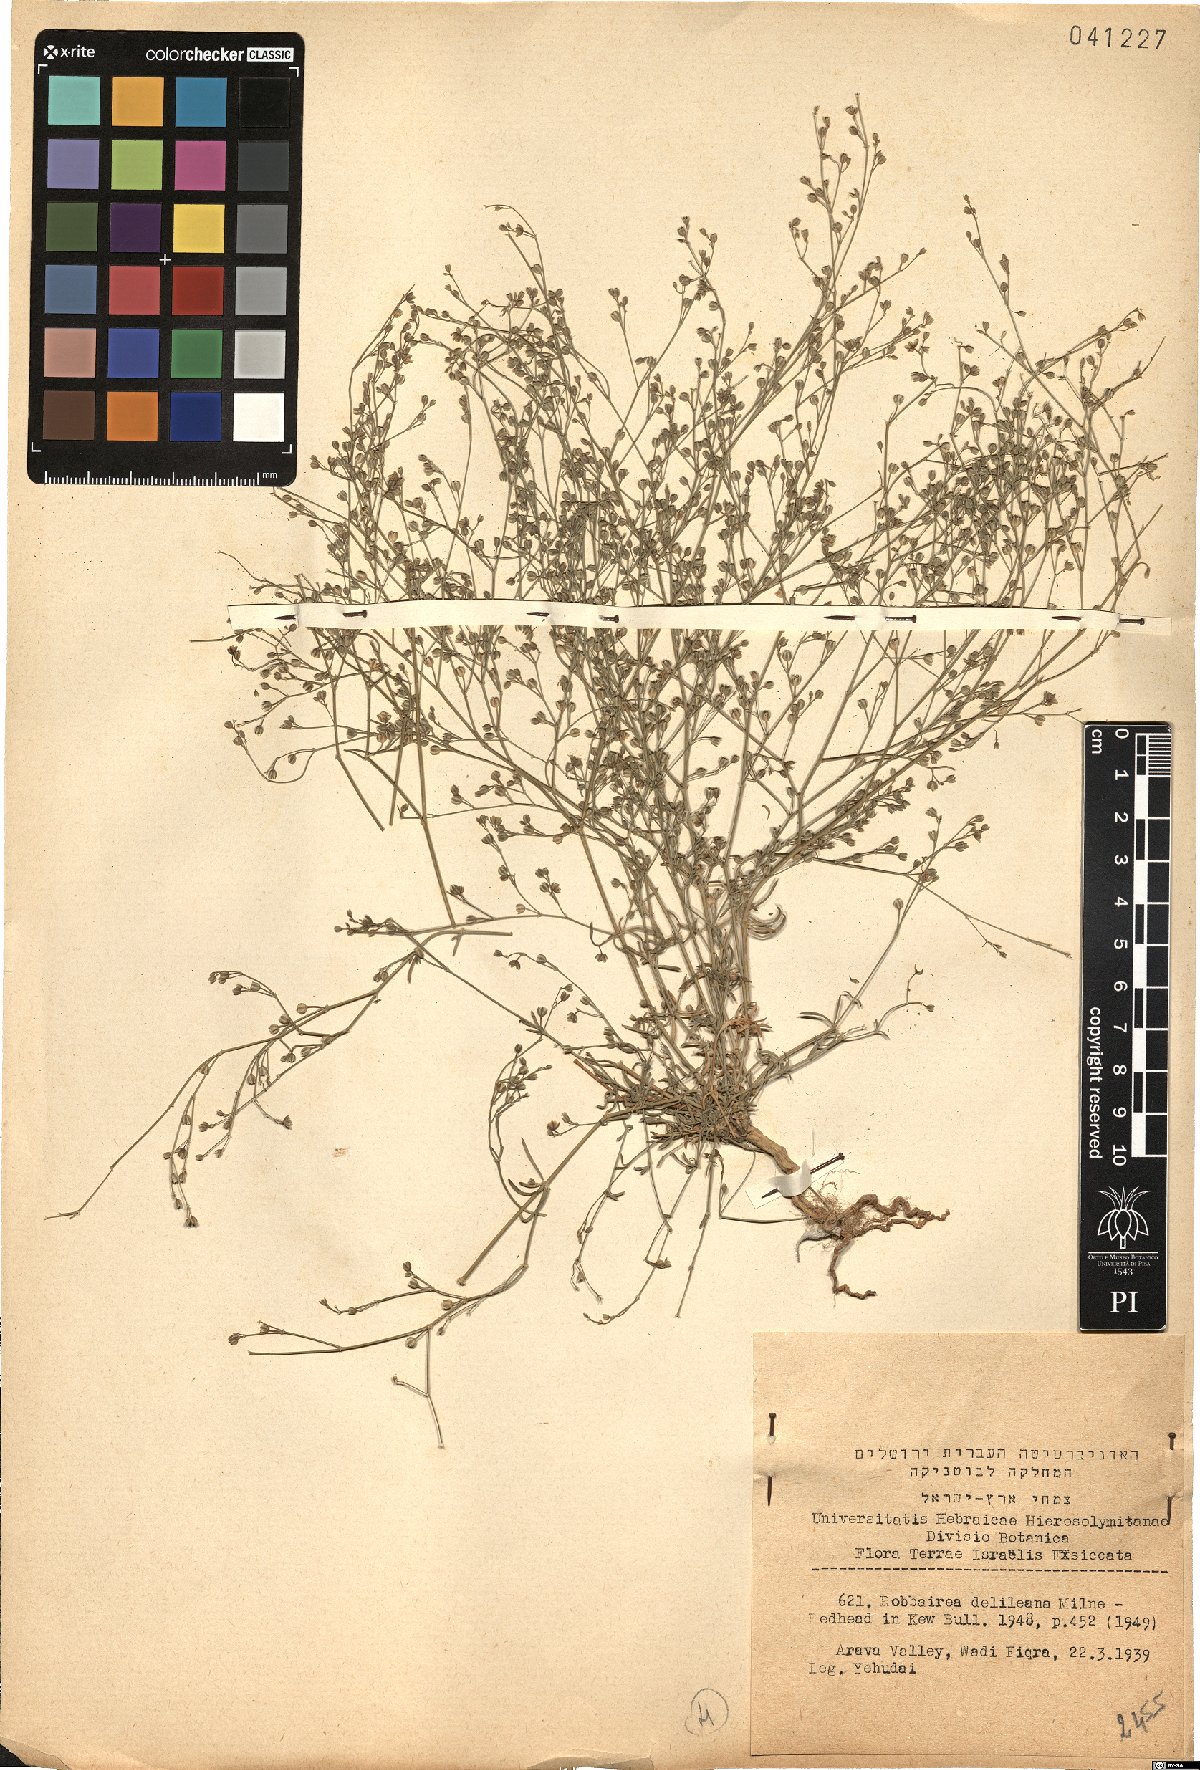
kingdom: Plantae
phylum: Tracheophyta
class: Magnoliopsida
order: Caryophyllales
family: Caryophyllaceae
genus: Polycarpaea
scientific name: Polycarpaea robbairea
